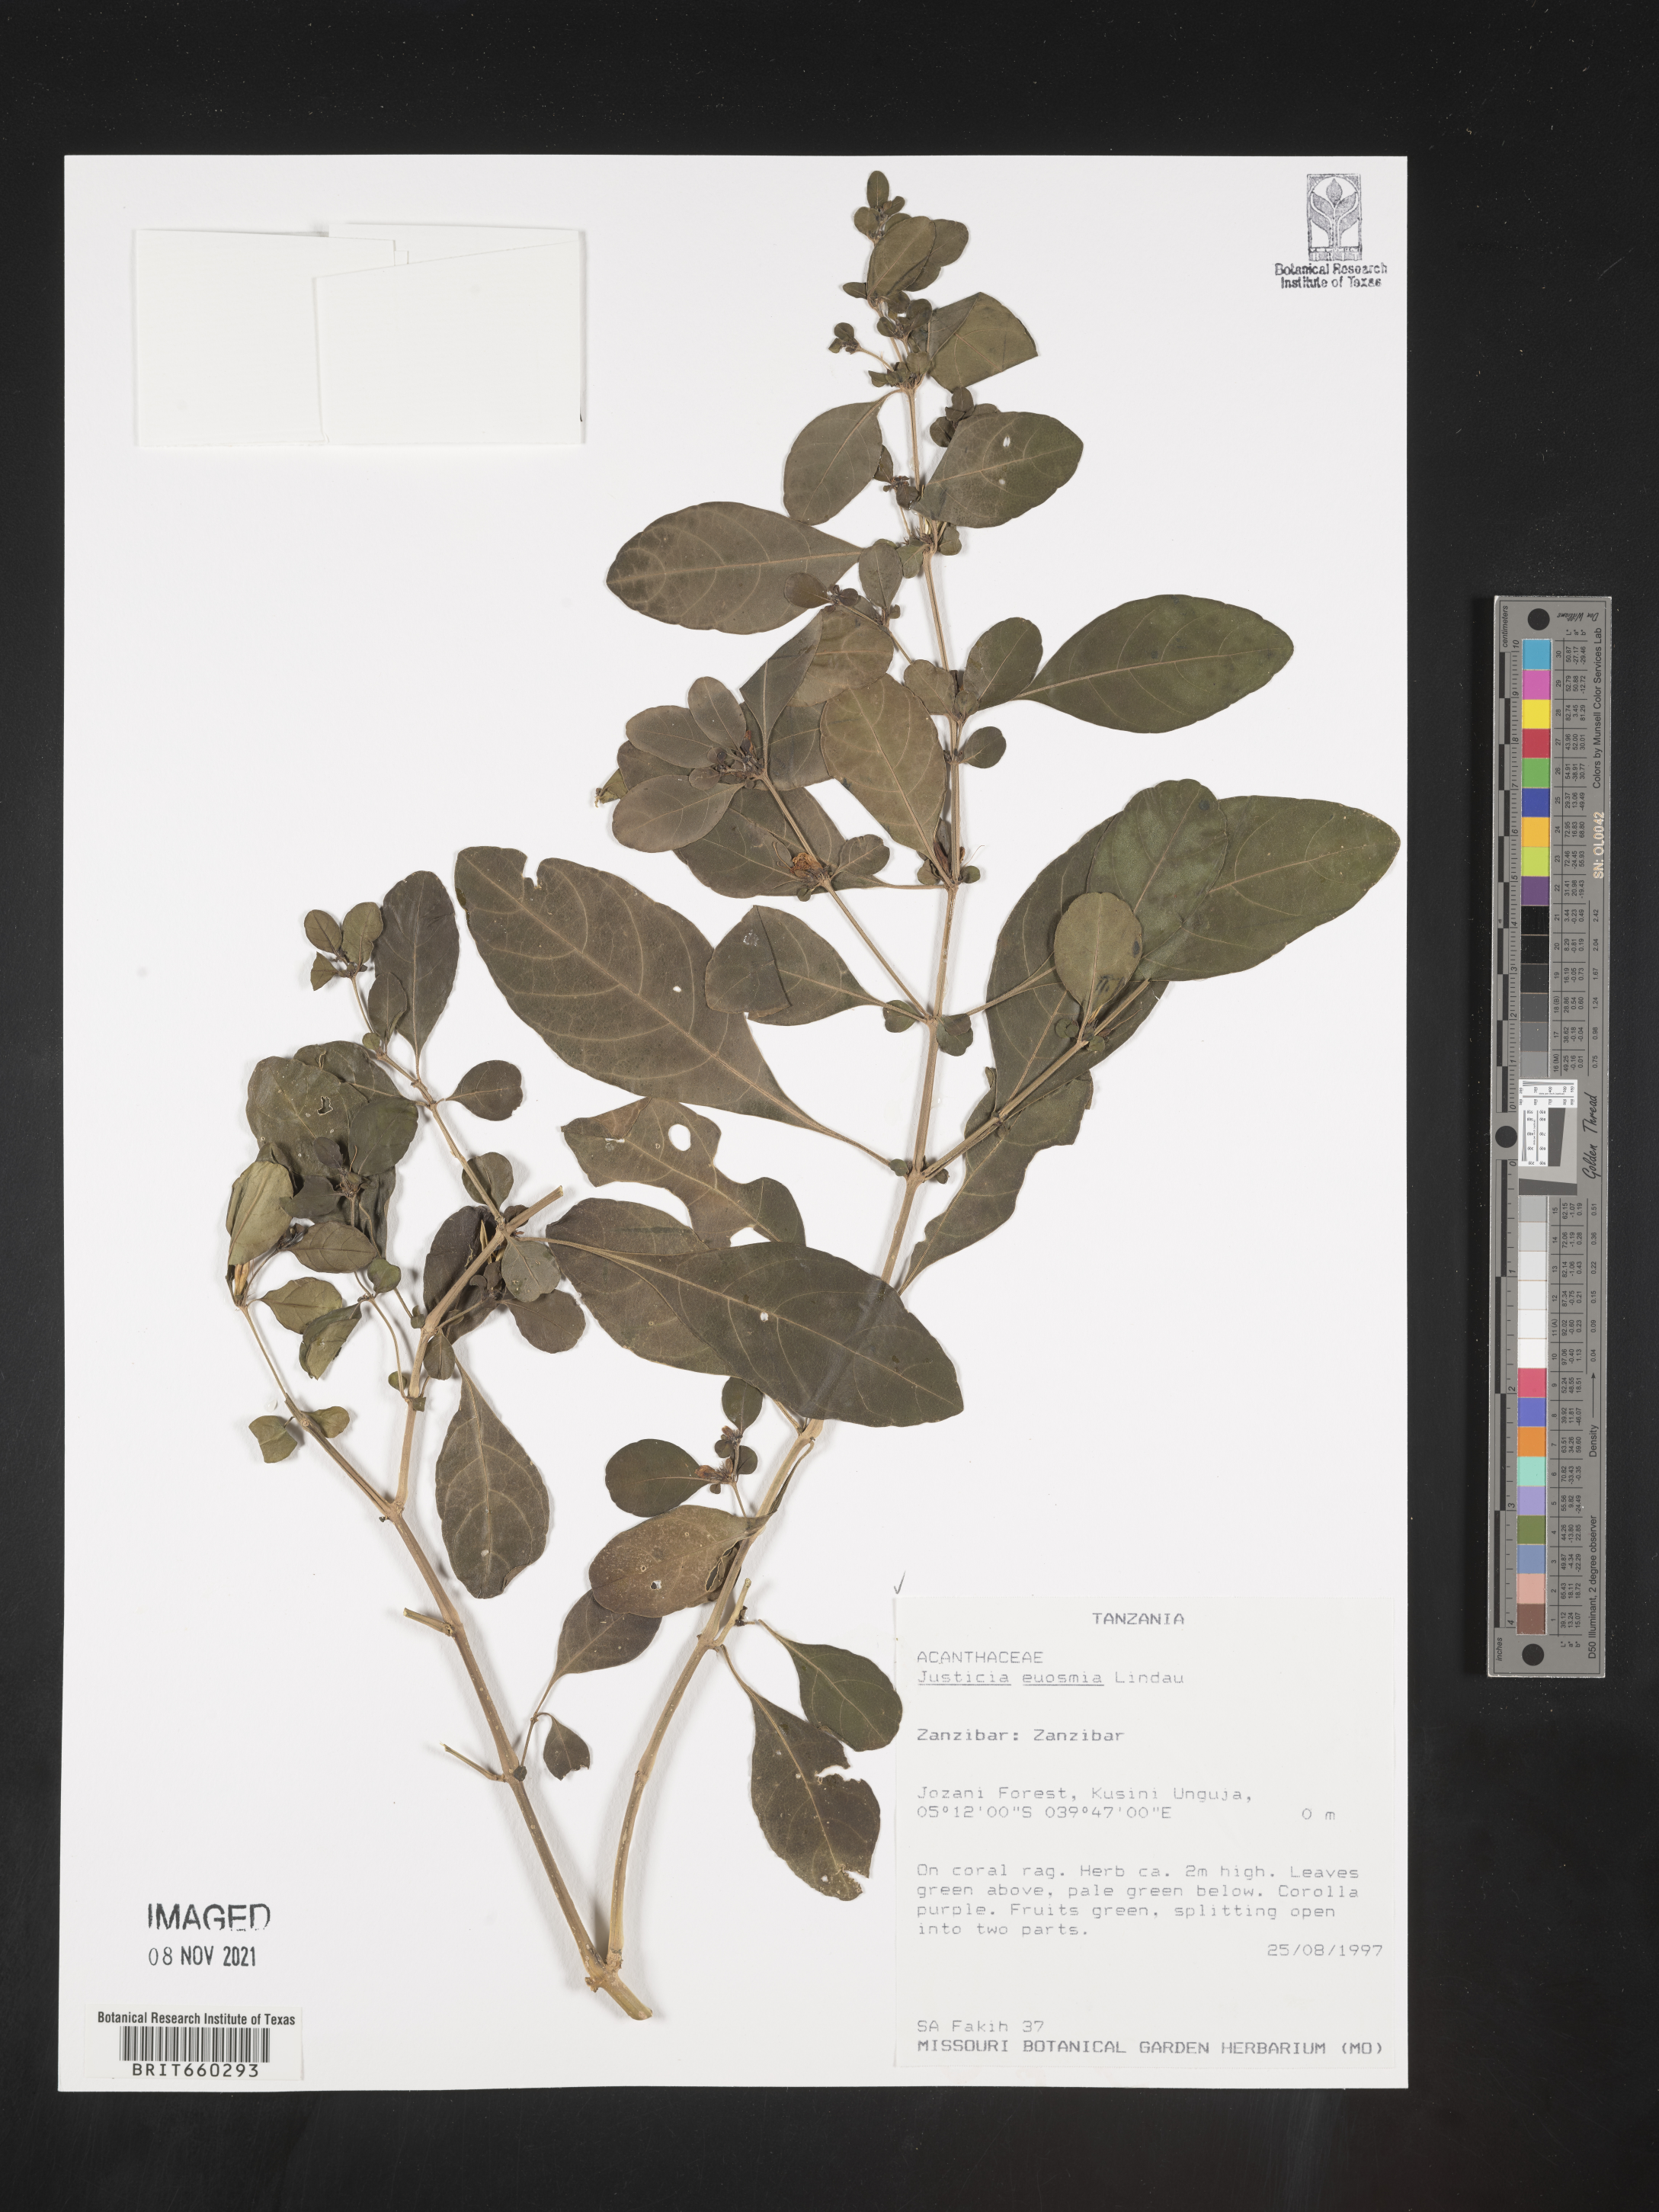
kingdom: Plantae
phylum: Tracheophyta
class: Magnoliopsida
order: Lamiales
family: Acanthaceae
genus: Justicia
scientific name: Justicia
